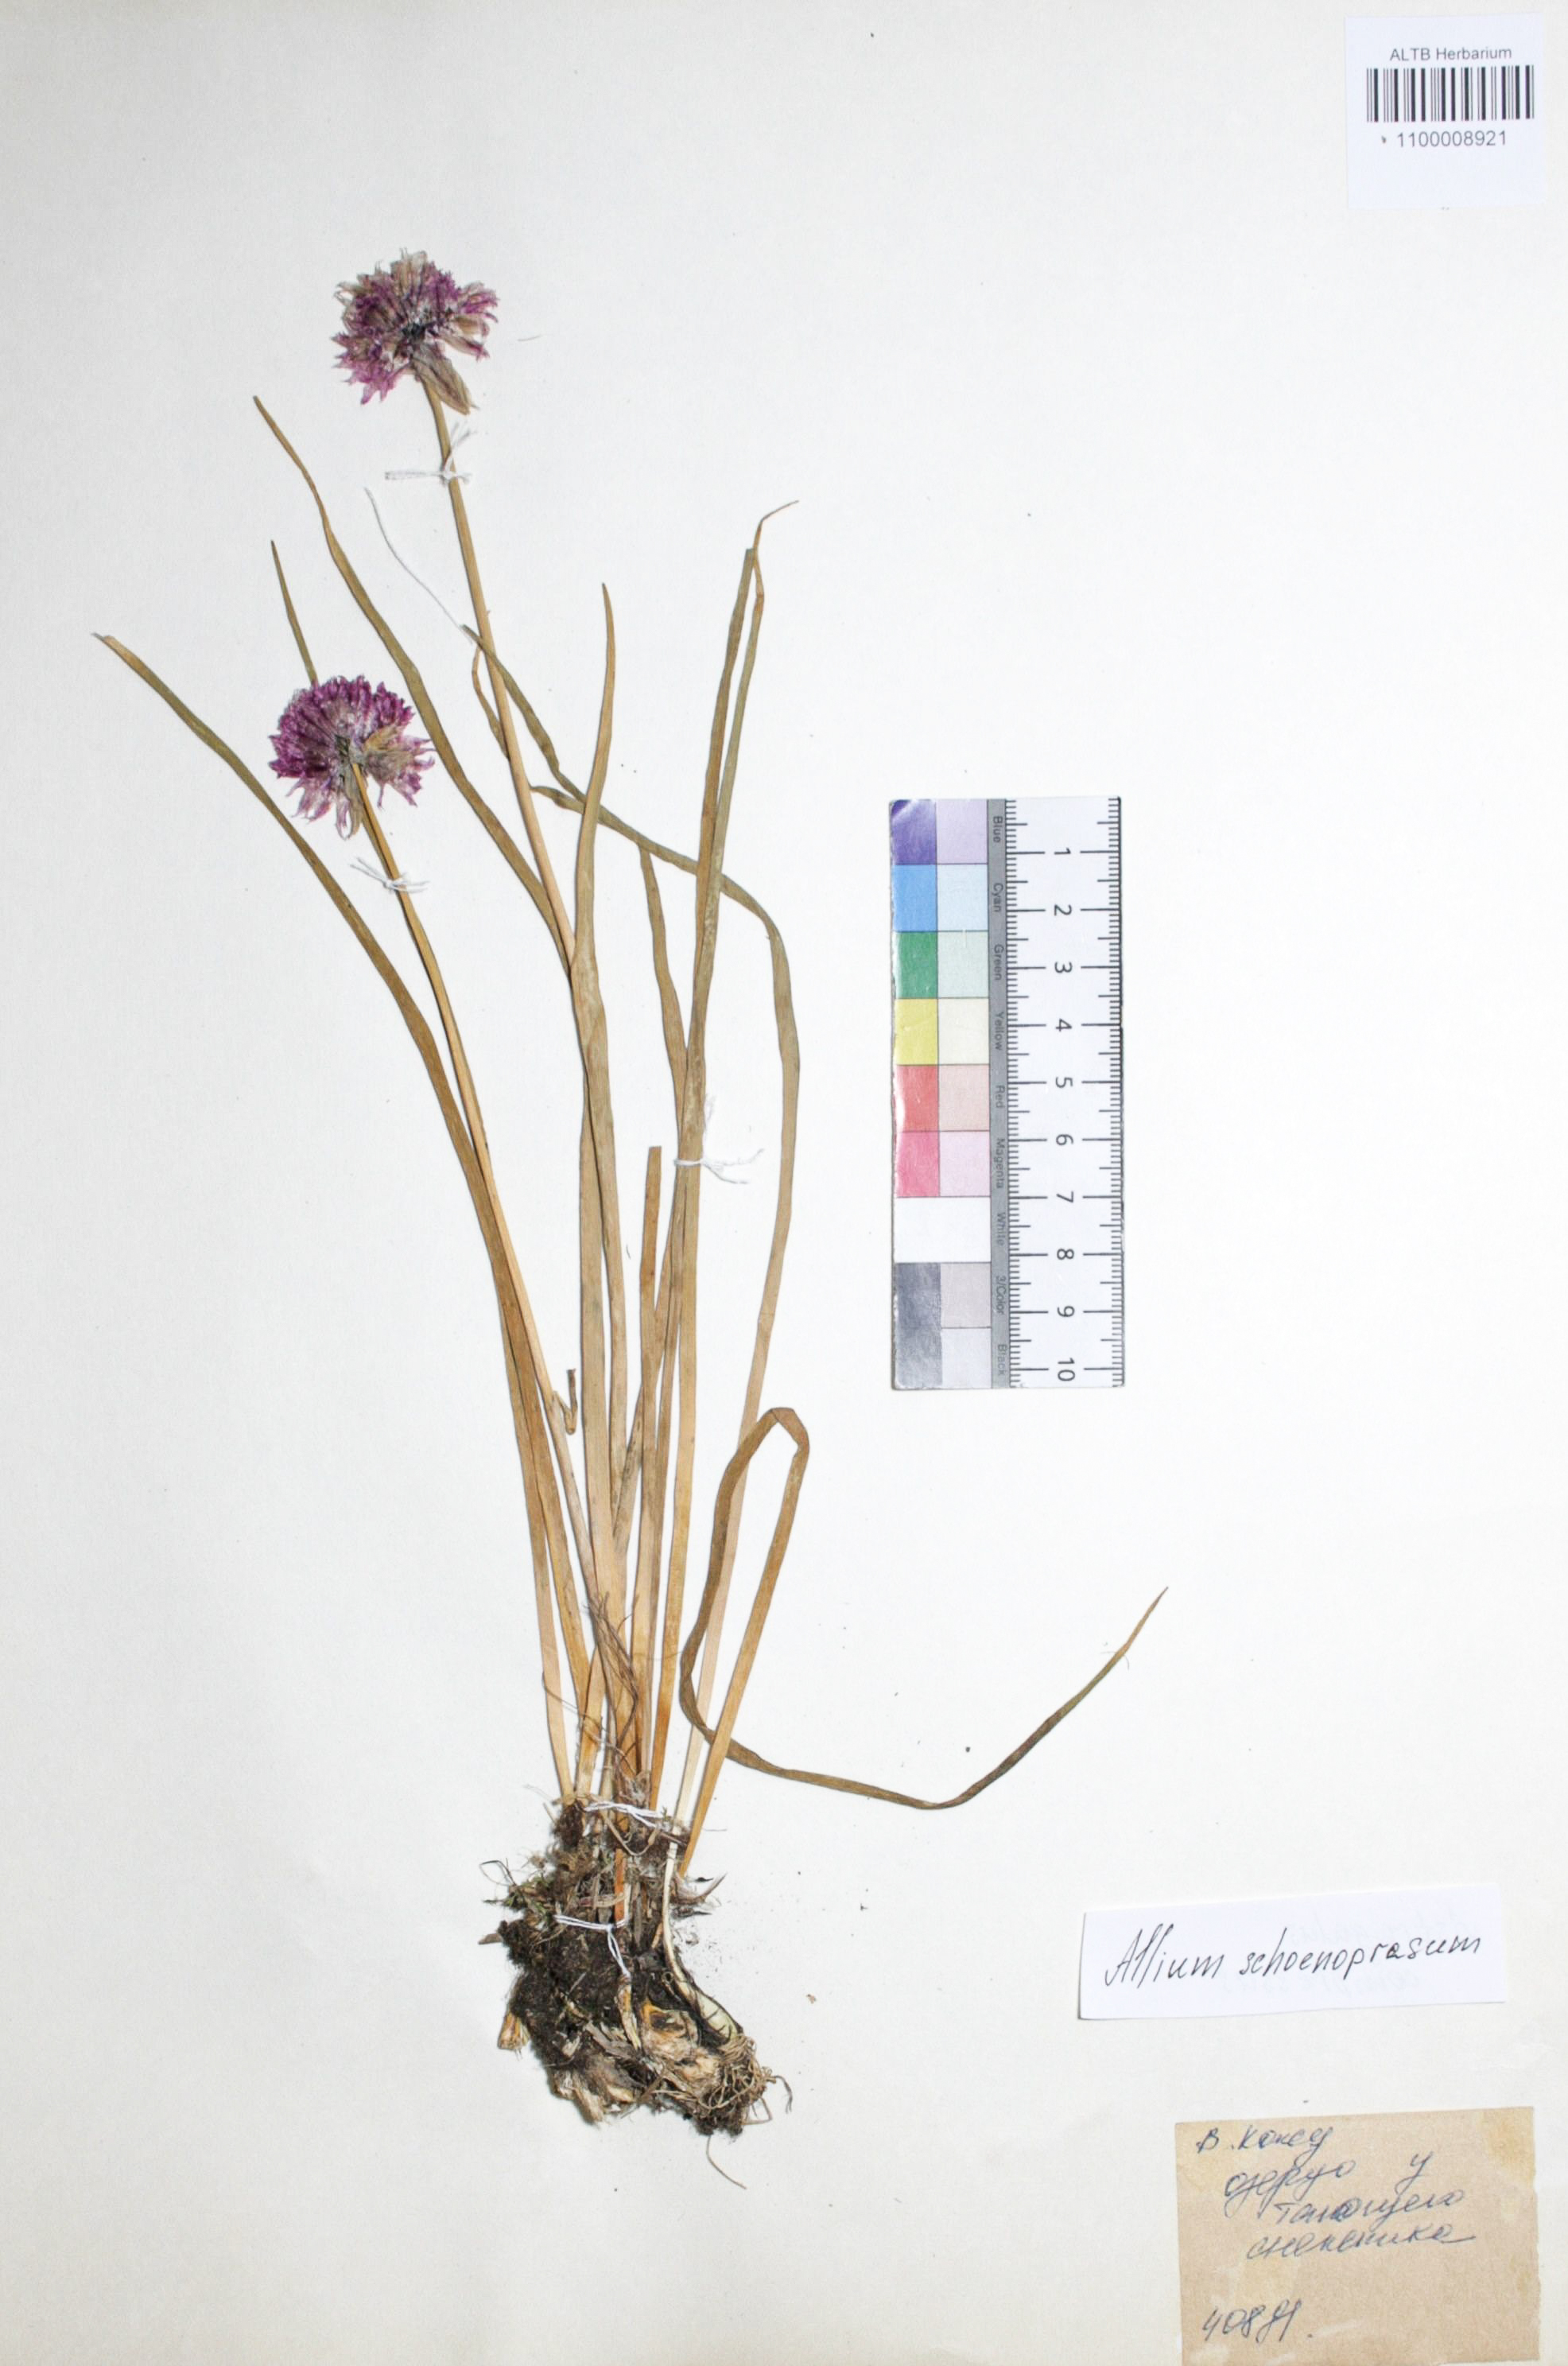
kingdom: Plantae
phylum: Tracheophyta
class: Liliopsida
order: Asparagales
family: Amaryllidaceae
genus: Allium
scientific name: Allium schoenoprasum
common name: Chives
